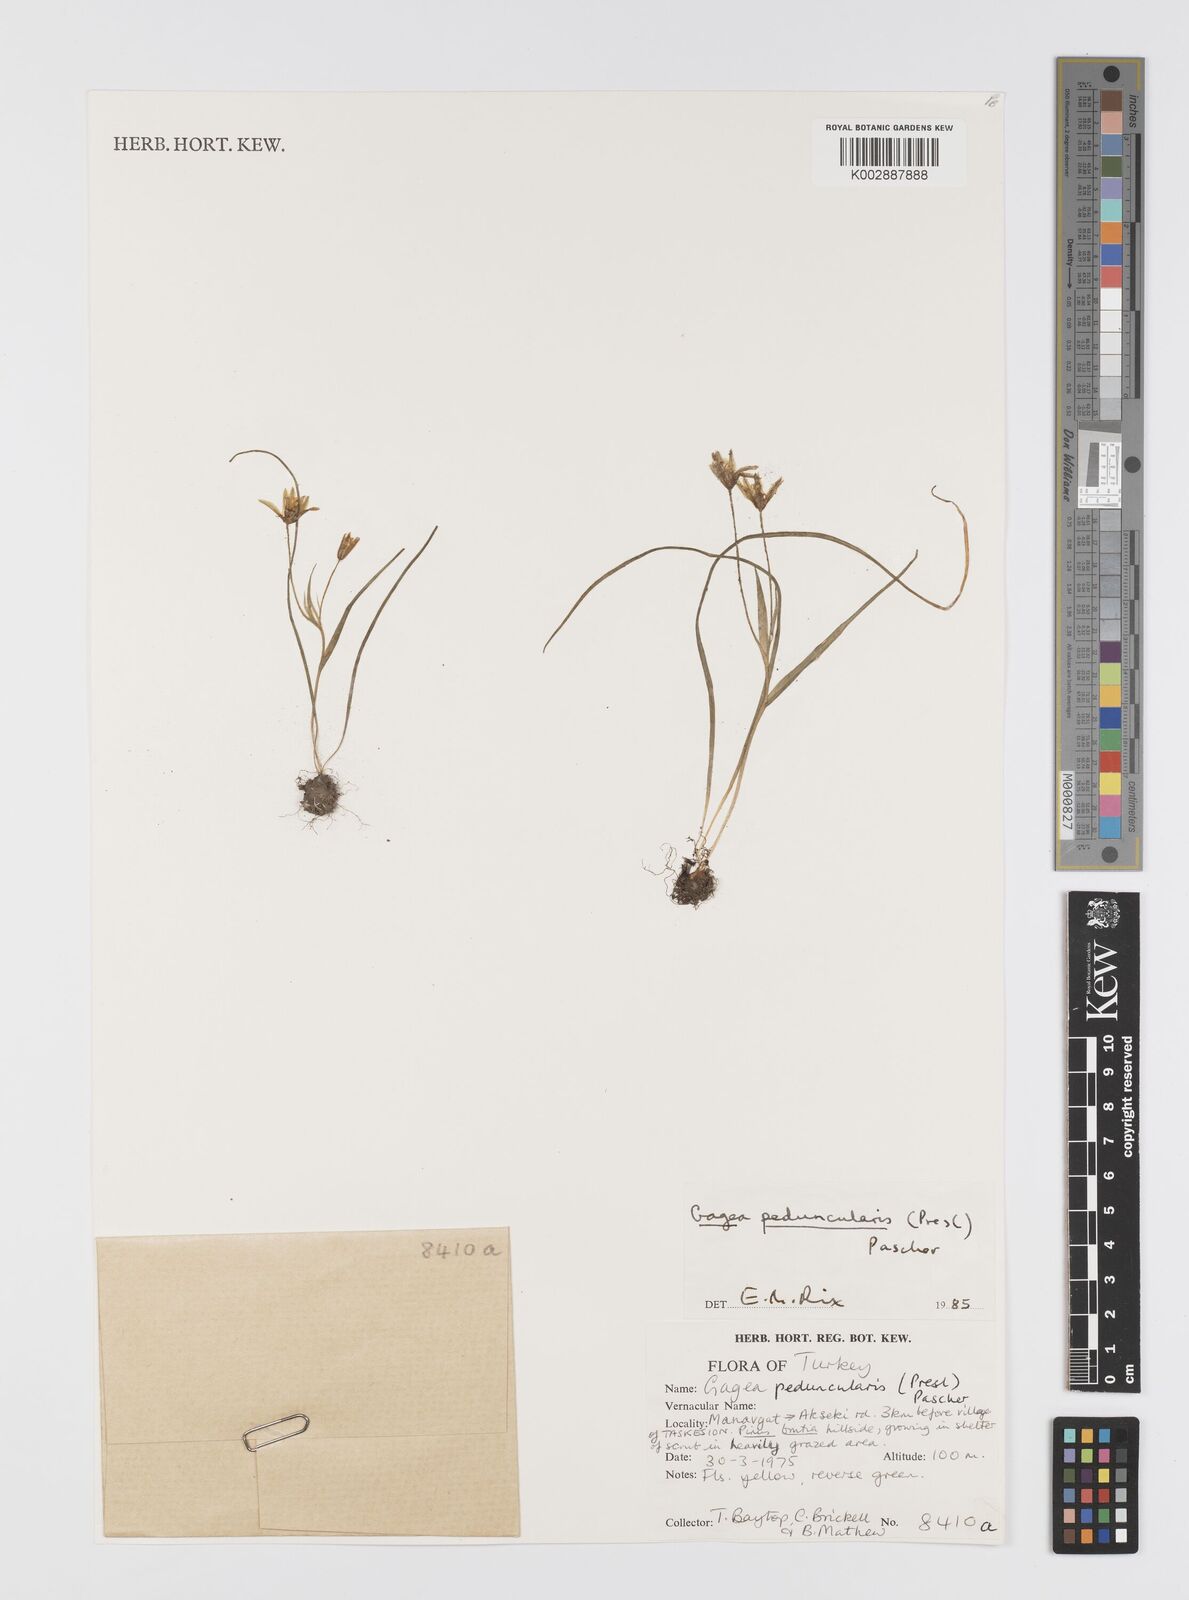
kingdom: Plantae
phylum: Tracheophyta
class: Liliopsida
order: Liliales
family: Liliaceae
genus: Gagea
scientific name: Gagea peduncularis
